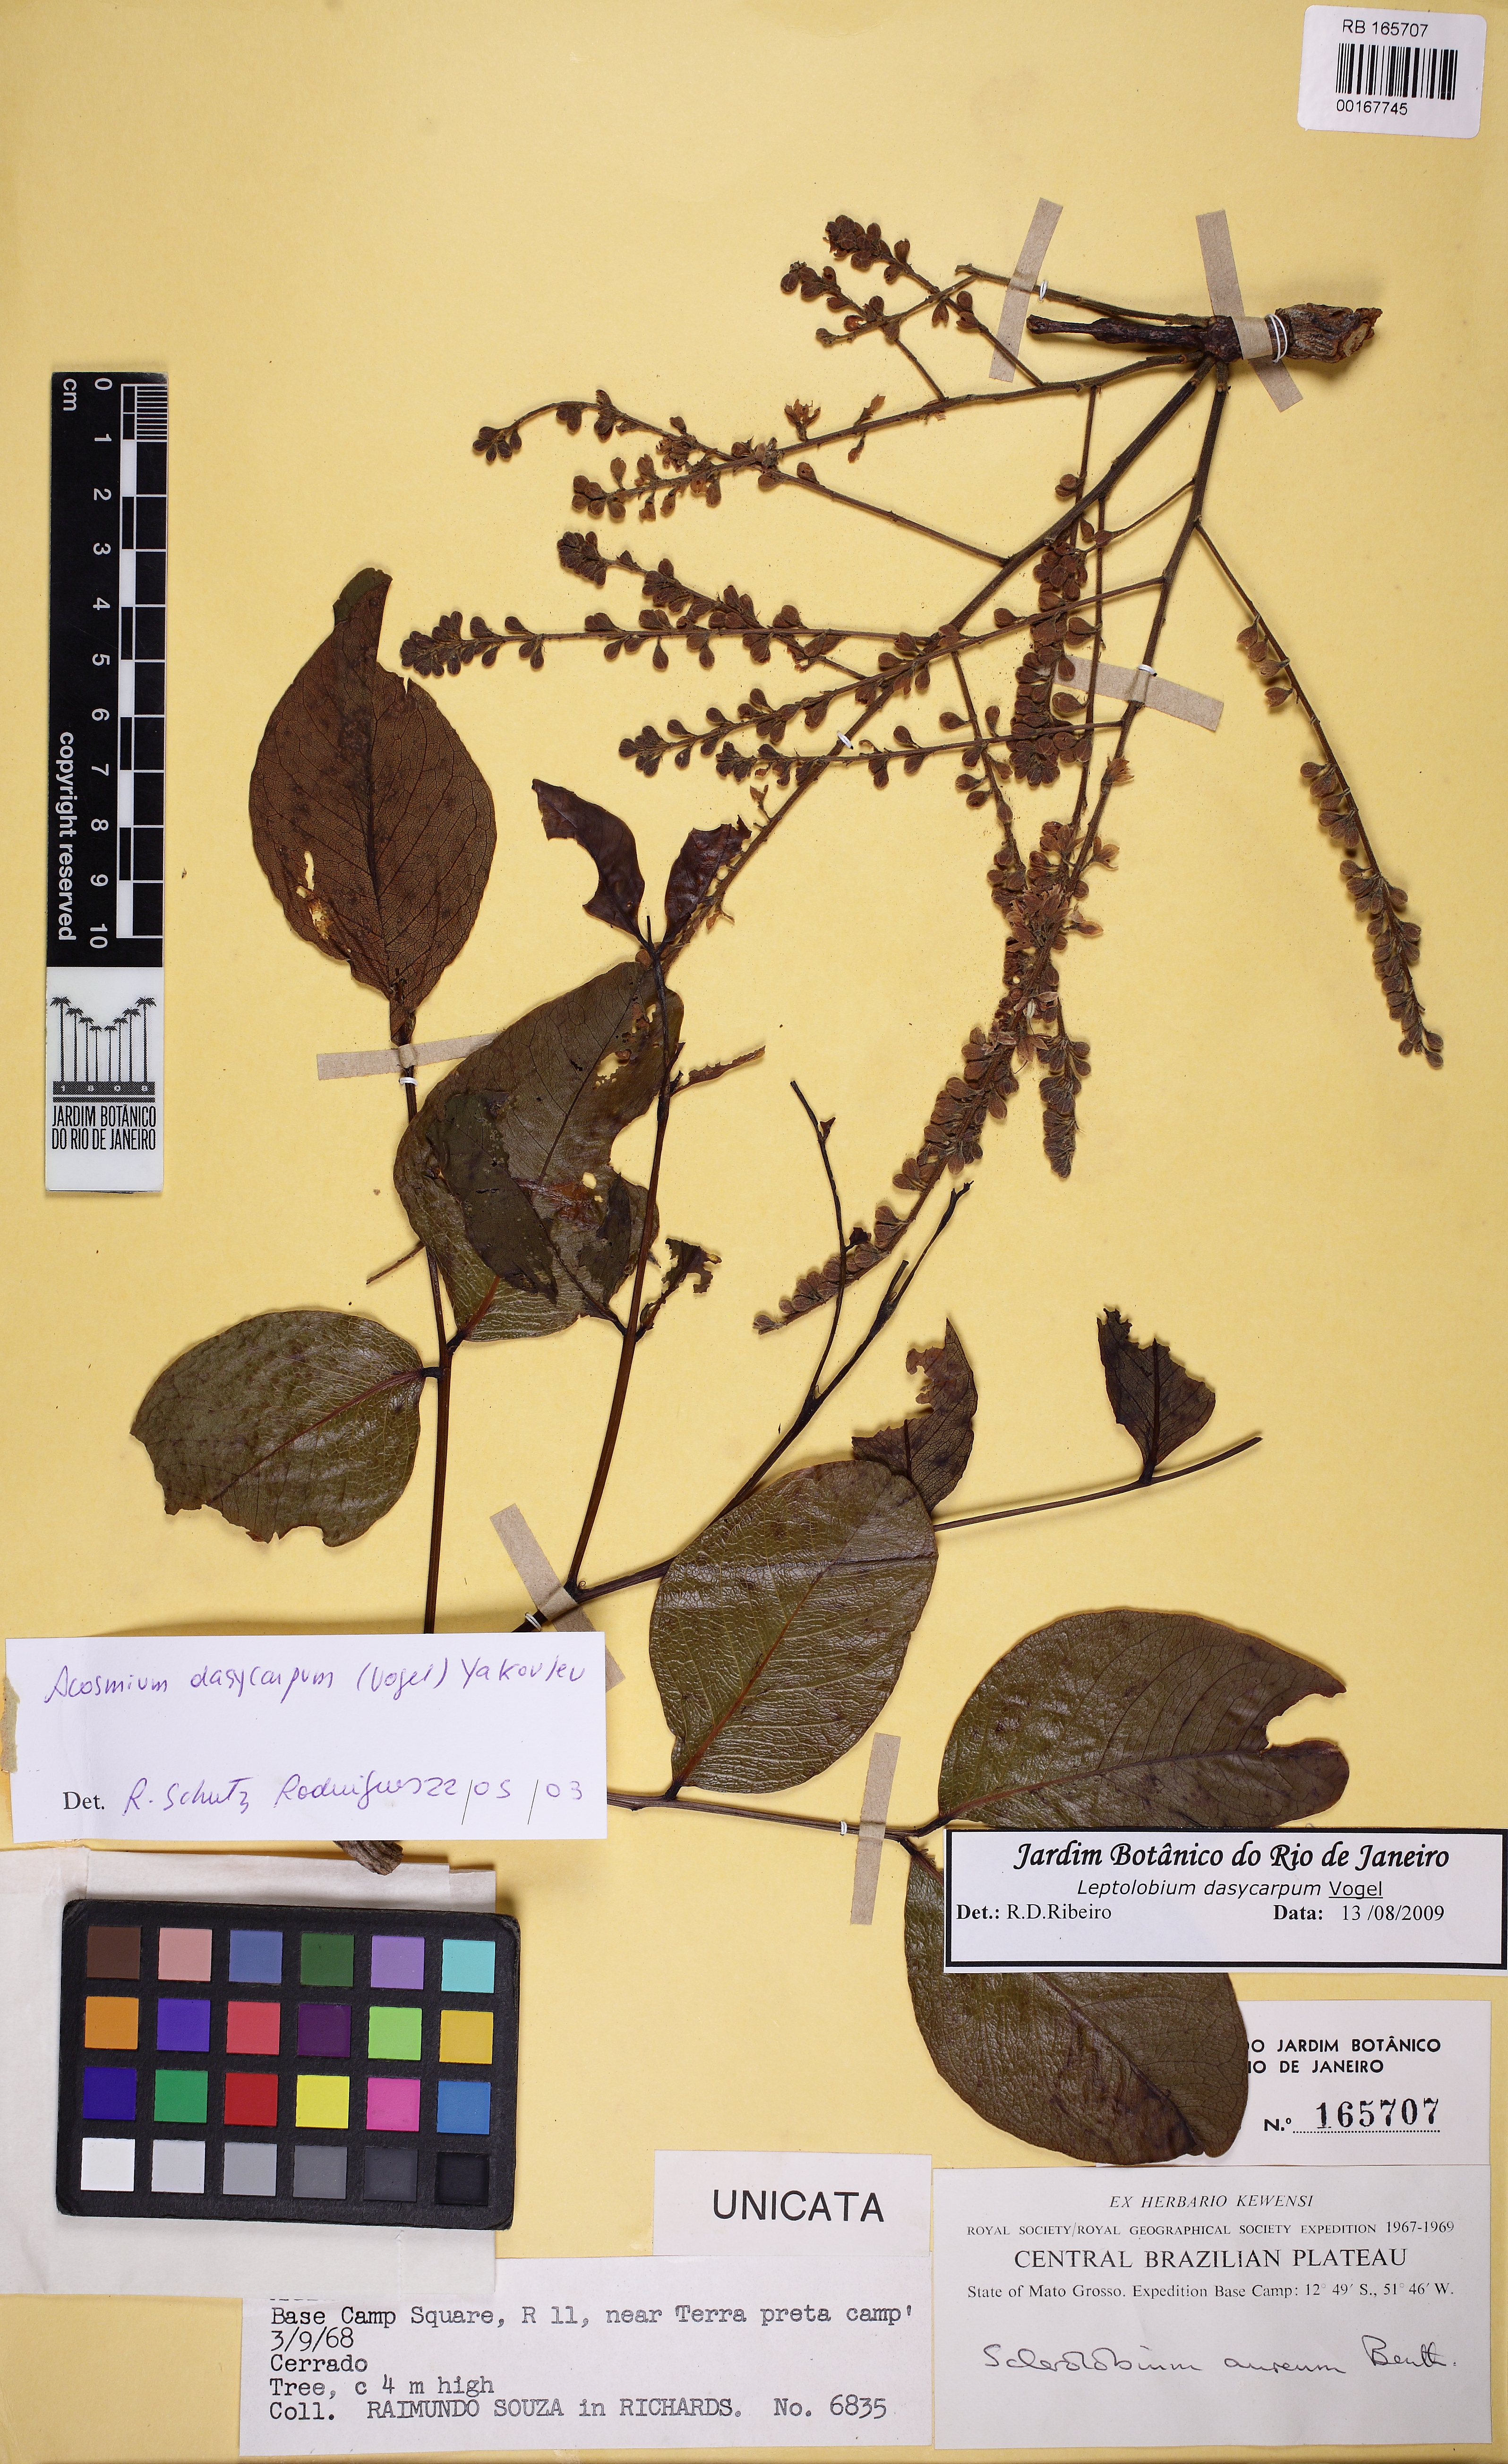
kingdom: Plantae
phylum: Tracheophyta
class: Magnoliopsida
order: Fabales
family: Fabaceae
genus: Leptolobium
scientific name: Leptolobium dasycarpum
